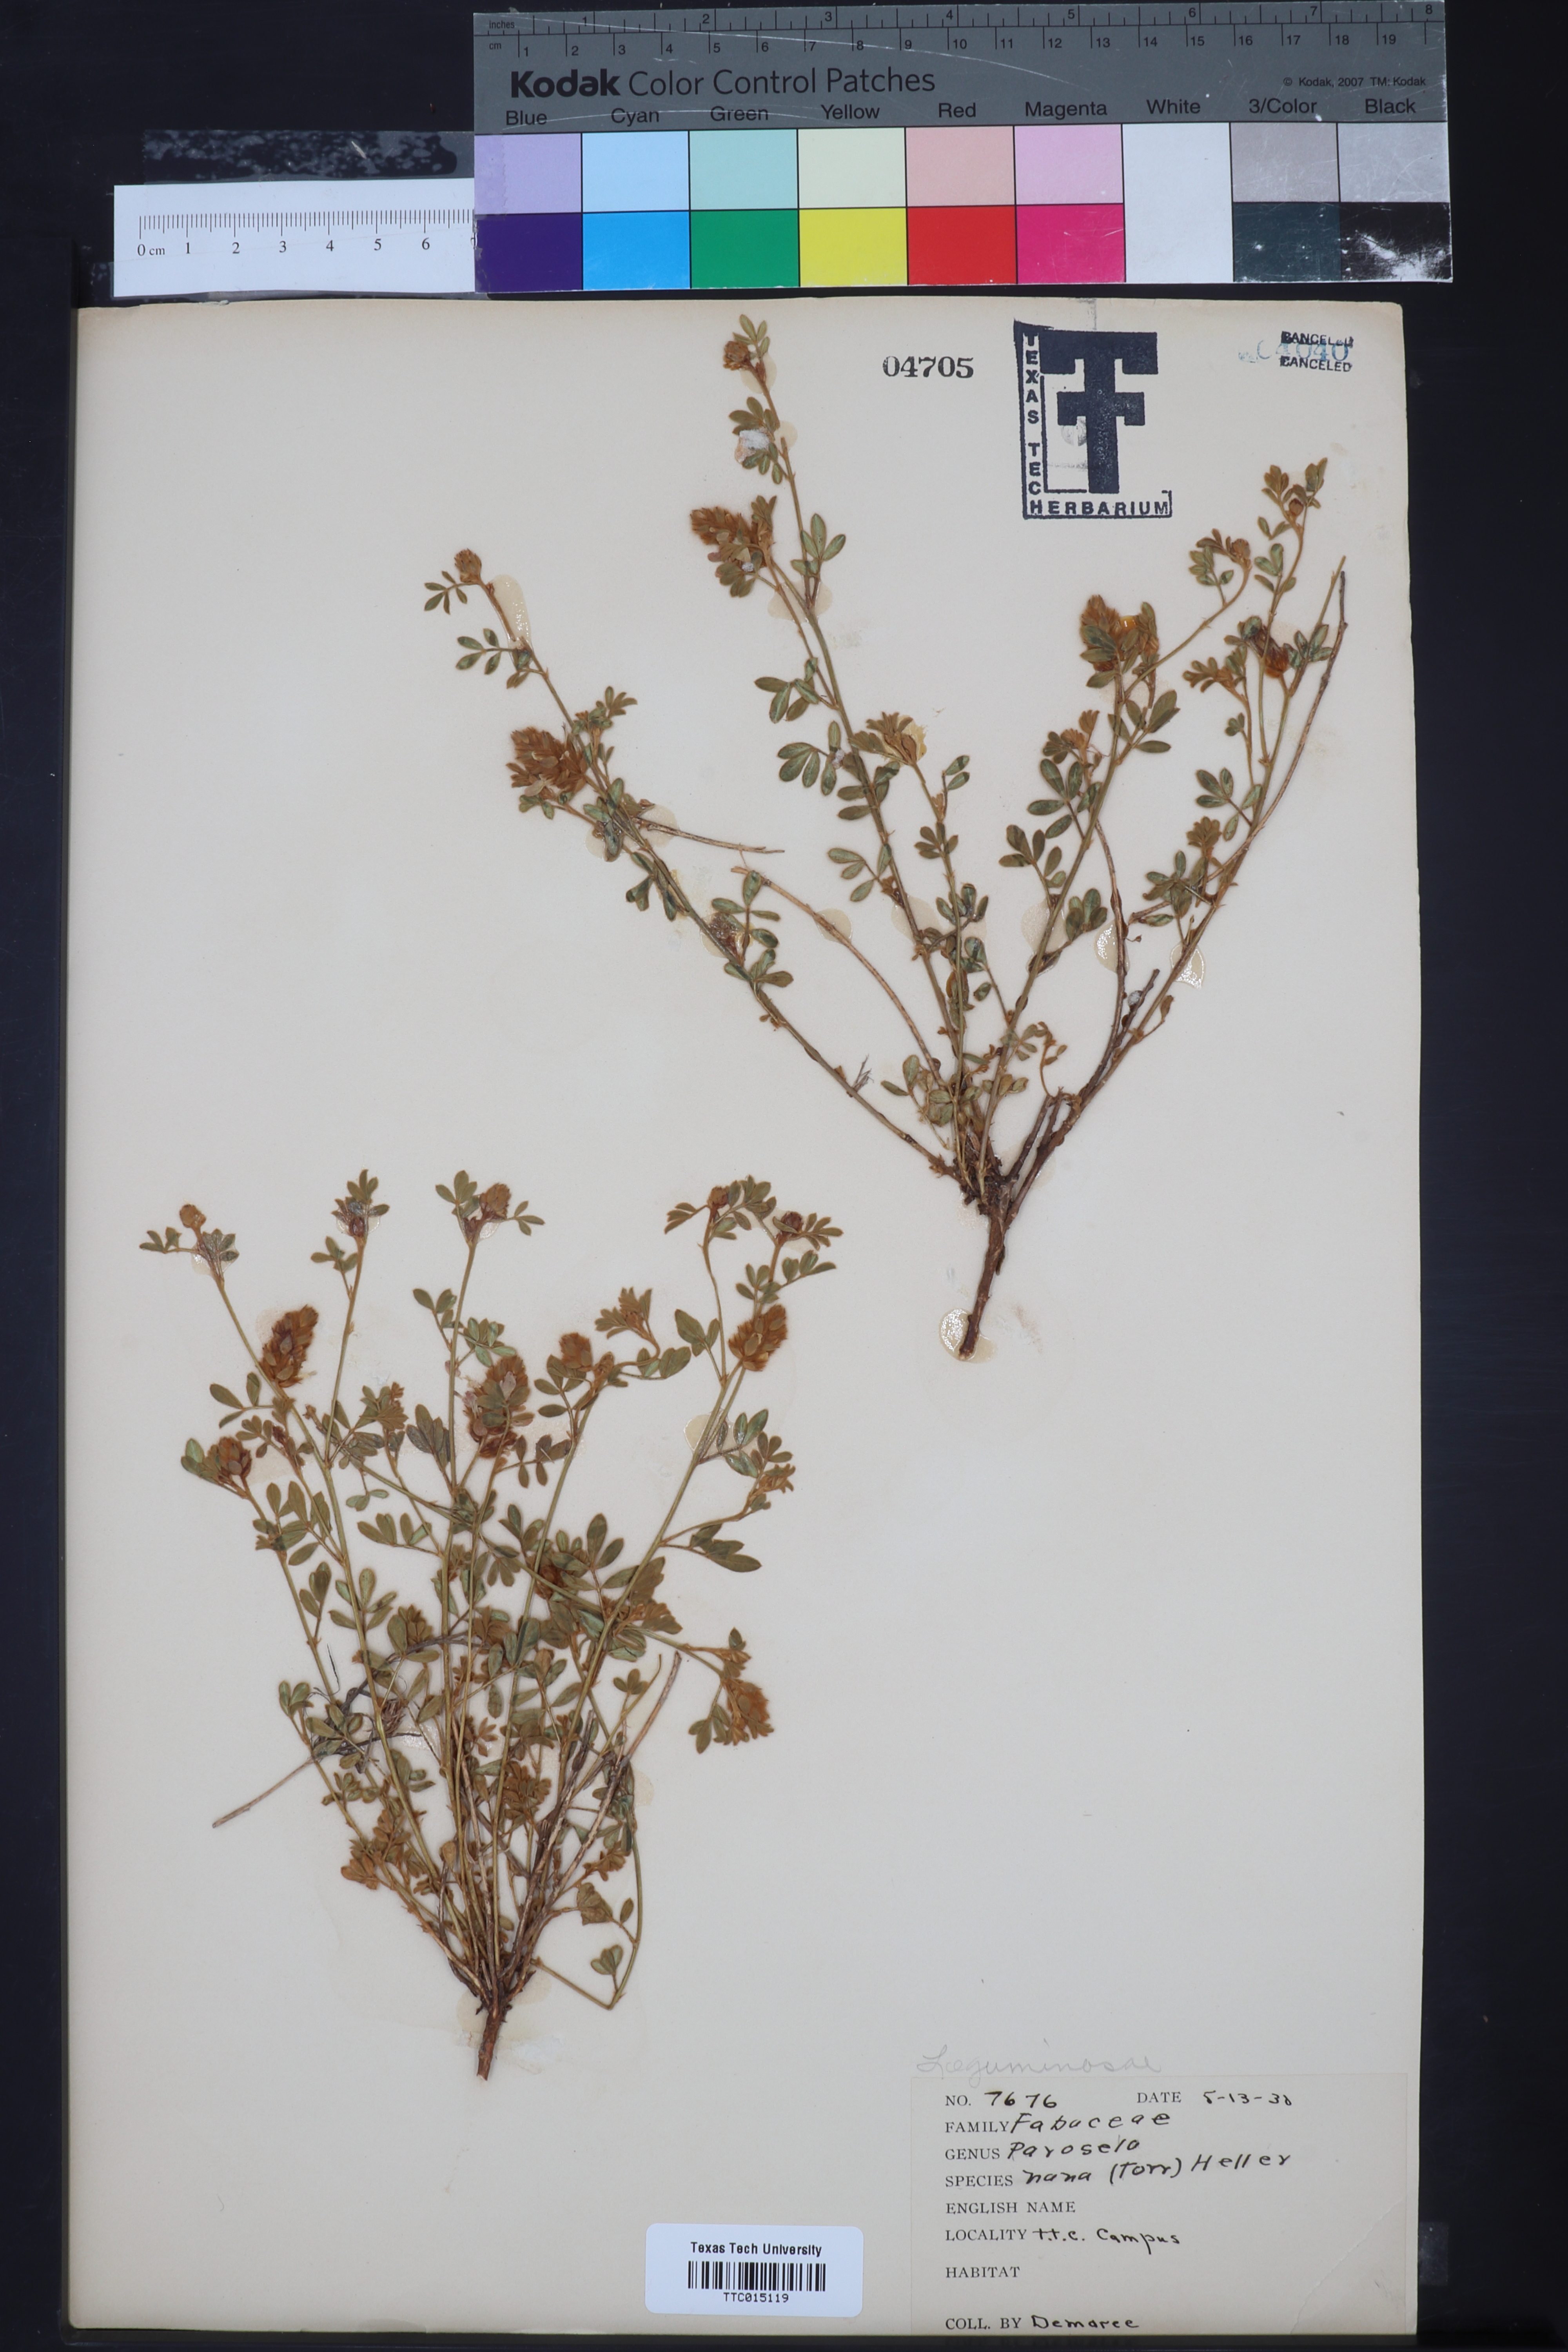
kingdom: Plantae
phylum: Tracheophyta
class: Magnoliopsida
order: Fabales
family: Fabaceae
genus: Dalea
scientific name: Dalea nana
